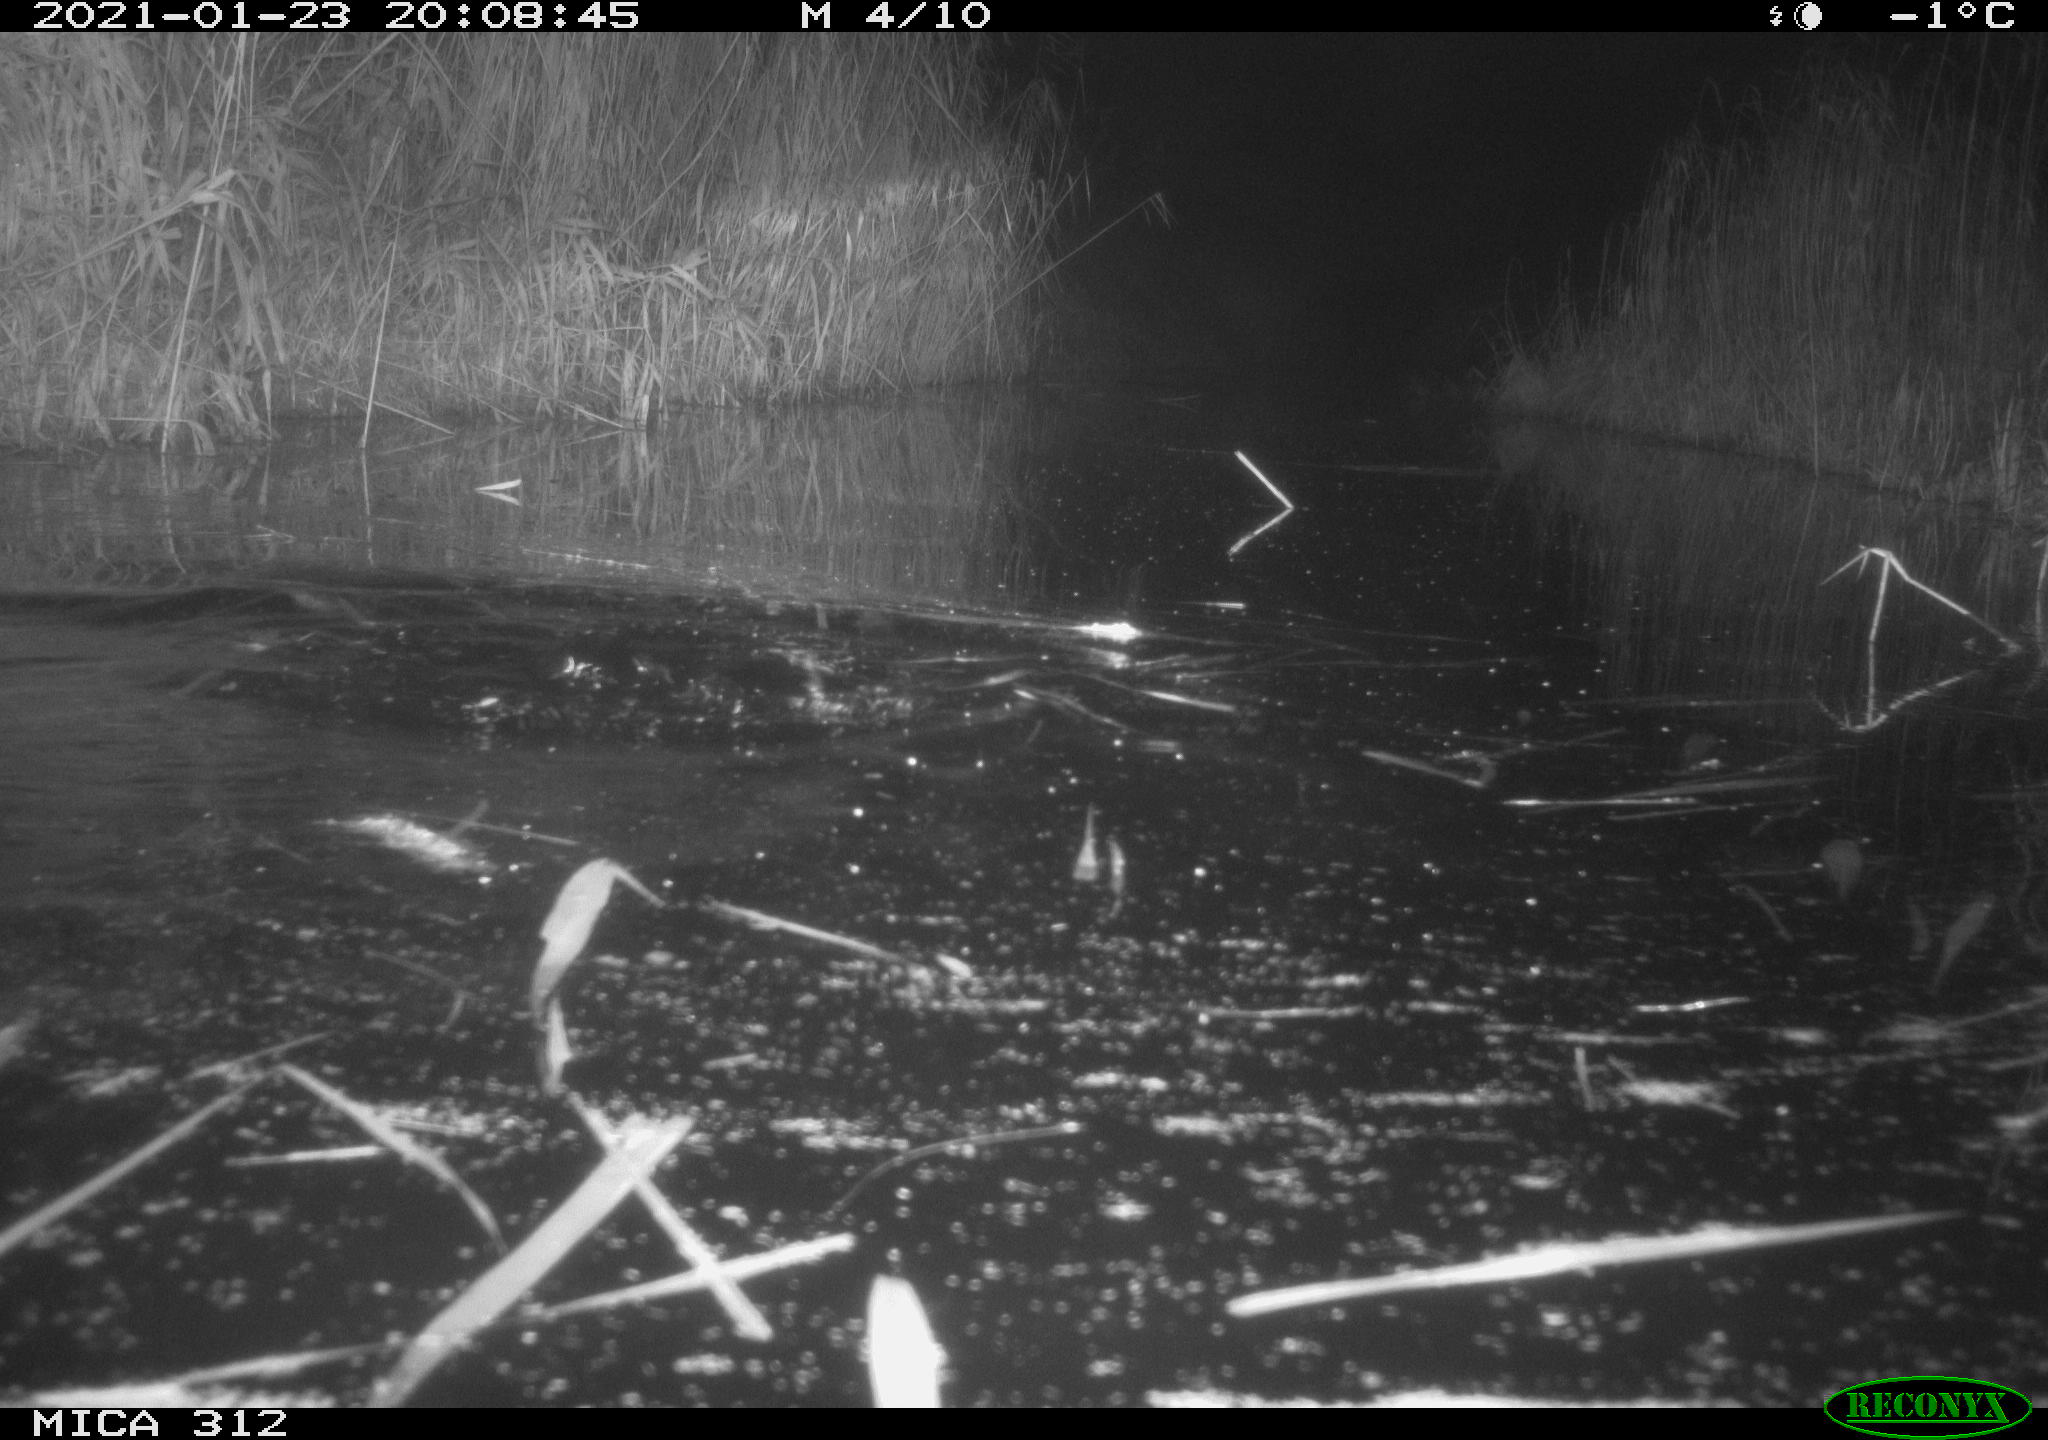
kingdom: Animalia
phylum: Chordata
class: Mammalia
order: Rodentia
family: Cricetidae
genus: Ondatra
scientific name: Ondatra zibethicus
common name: Muskrat
